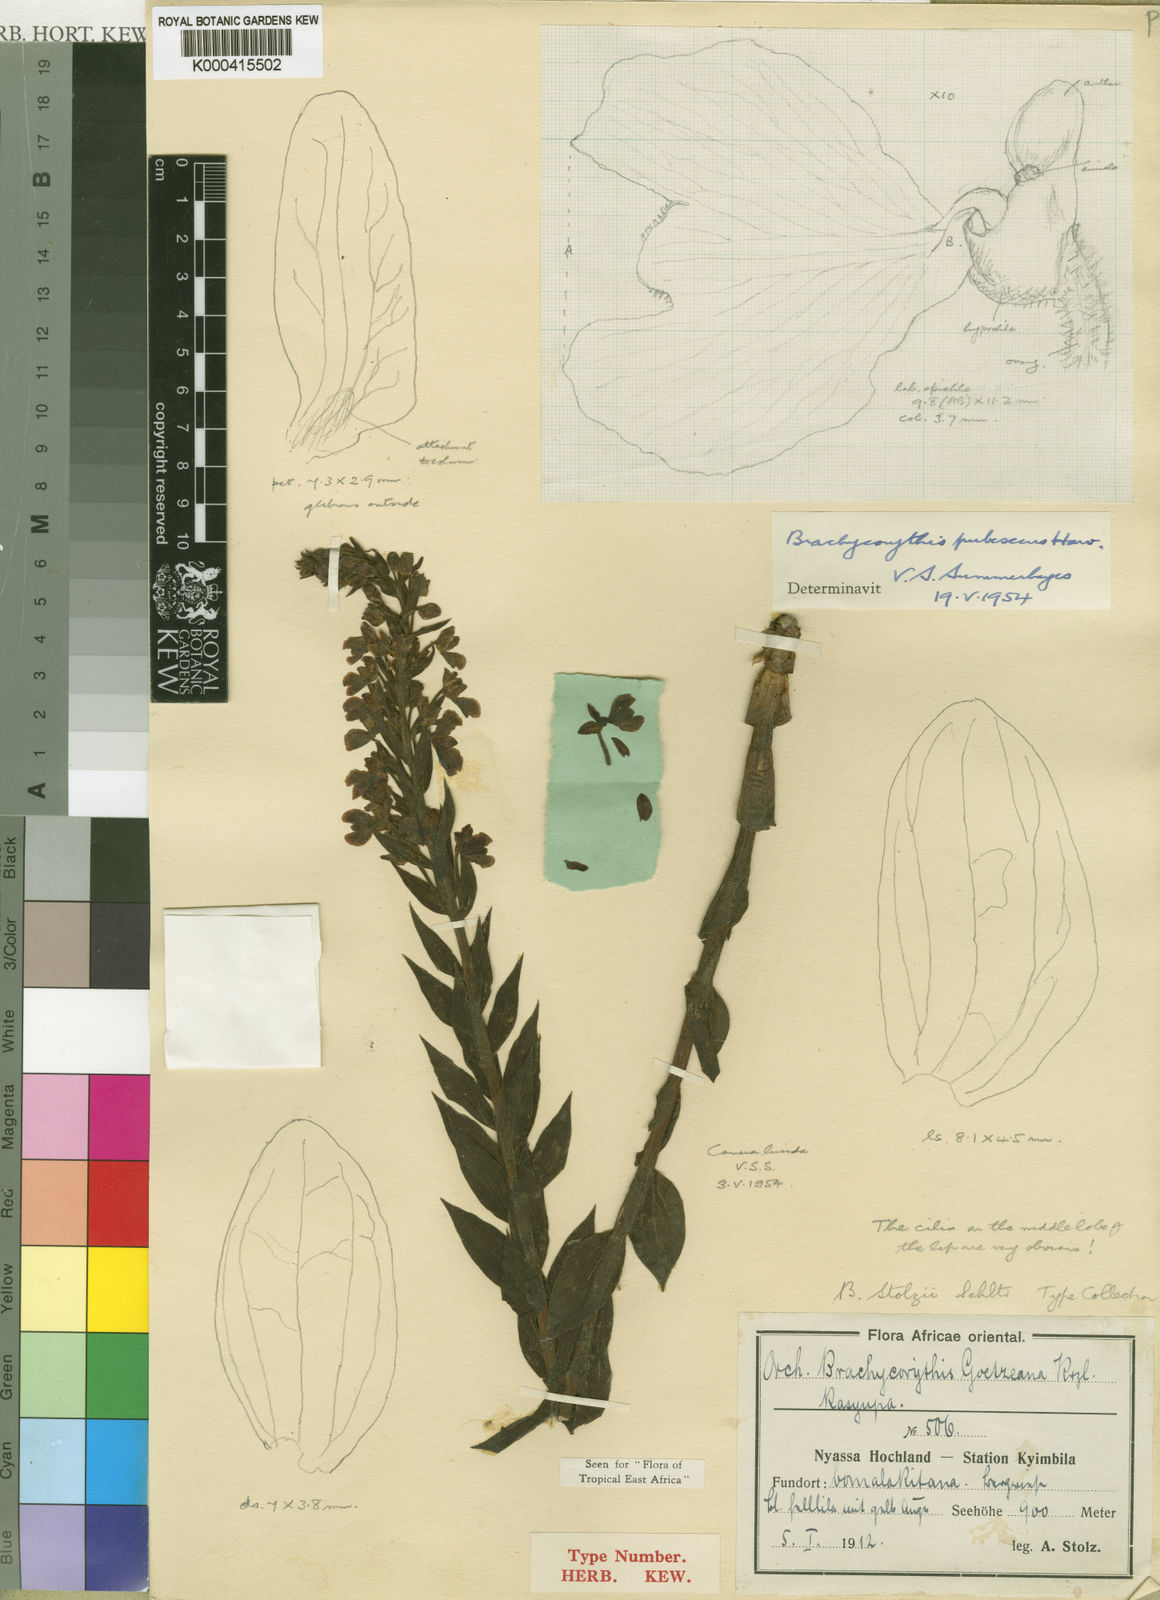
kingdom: Plantae
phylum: Tracheophyta
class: Liliopsida
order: Asparagales
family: Orchidaceae
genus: Brachycorythis
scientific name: Brachycorythis pubescens
